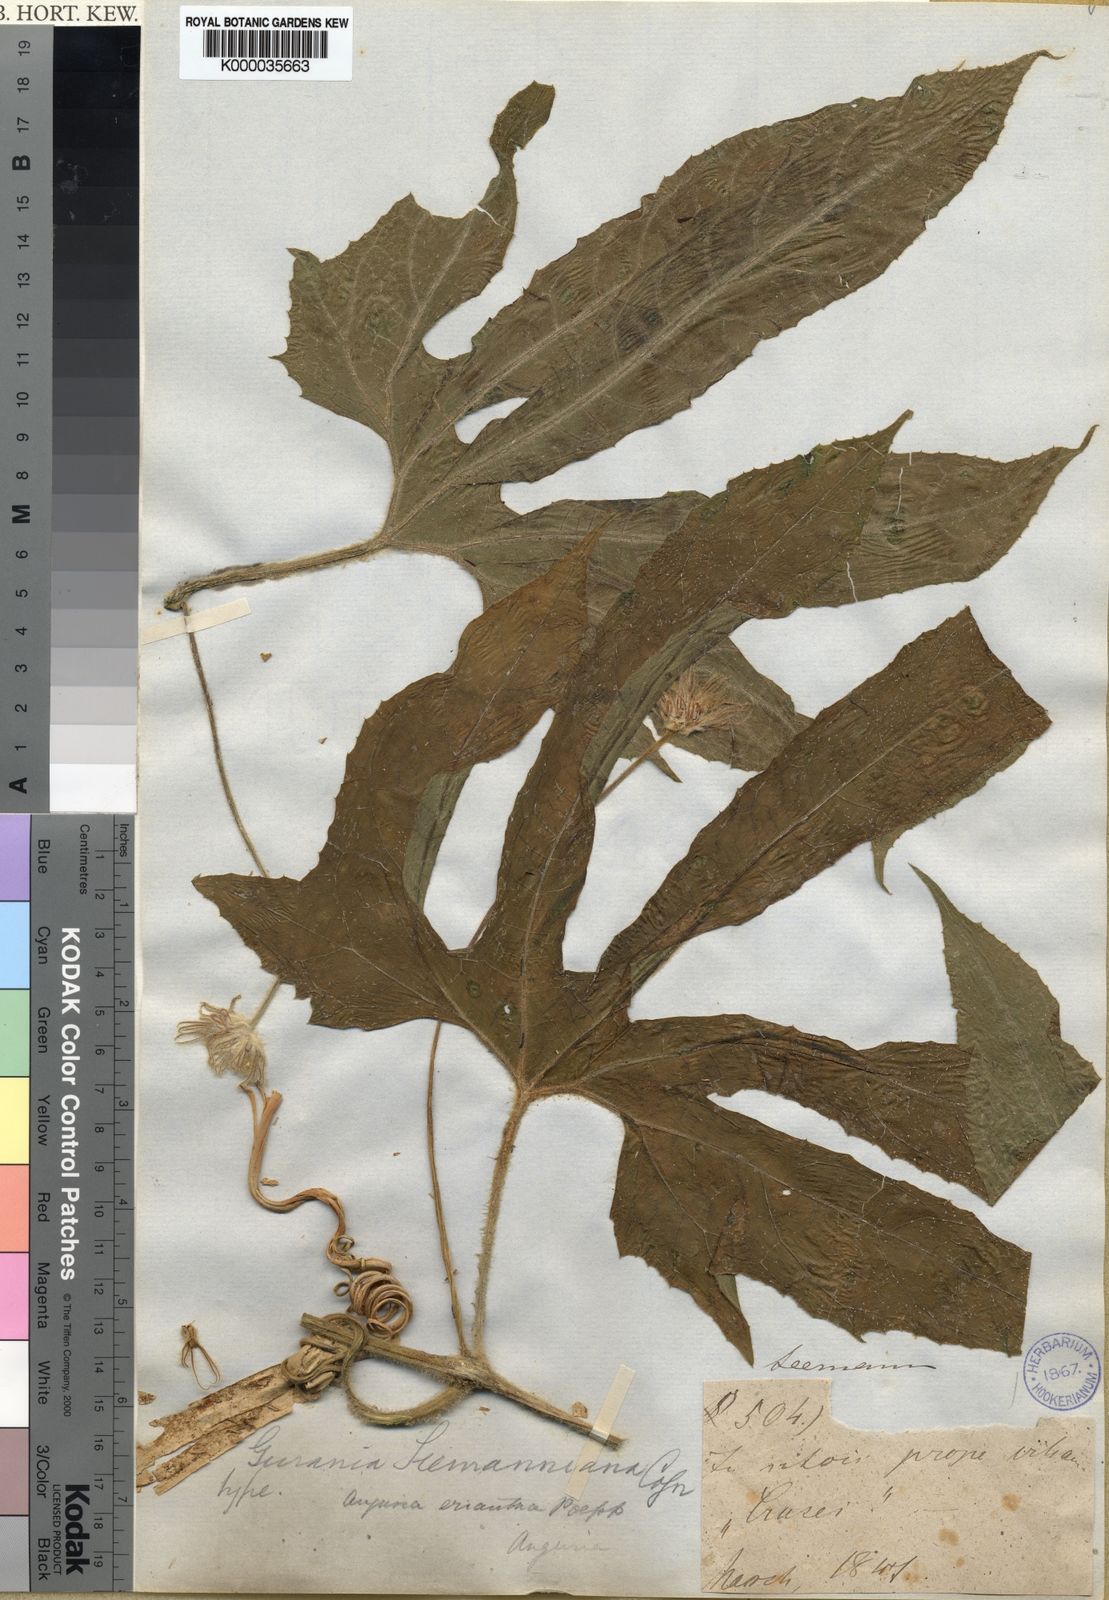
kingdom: Plantae
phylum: Tracheophyta
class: Magnoliopsida
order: Cucurbitales
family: Cucurbitaceae
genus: Gurania
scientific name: Gurania makoyana
